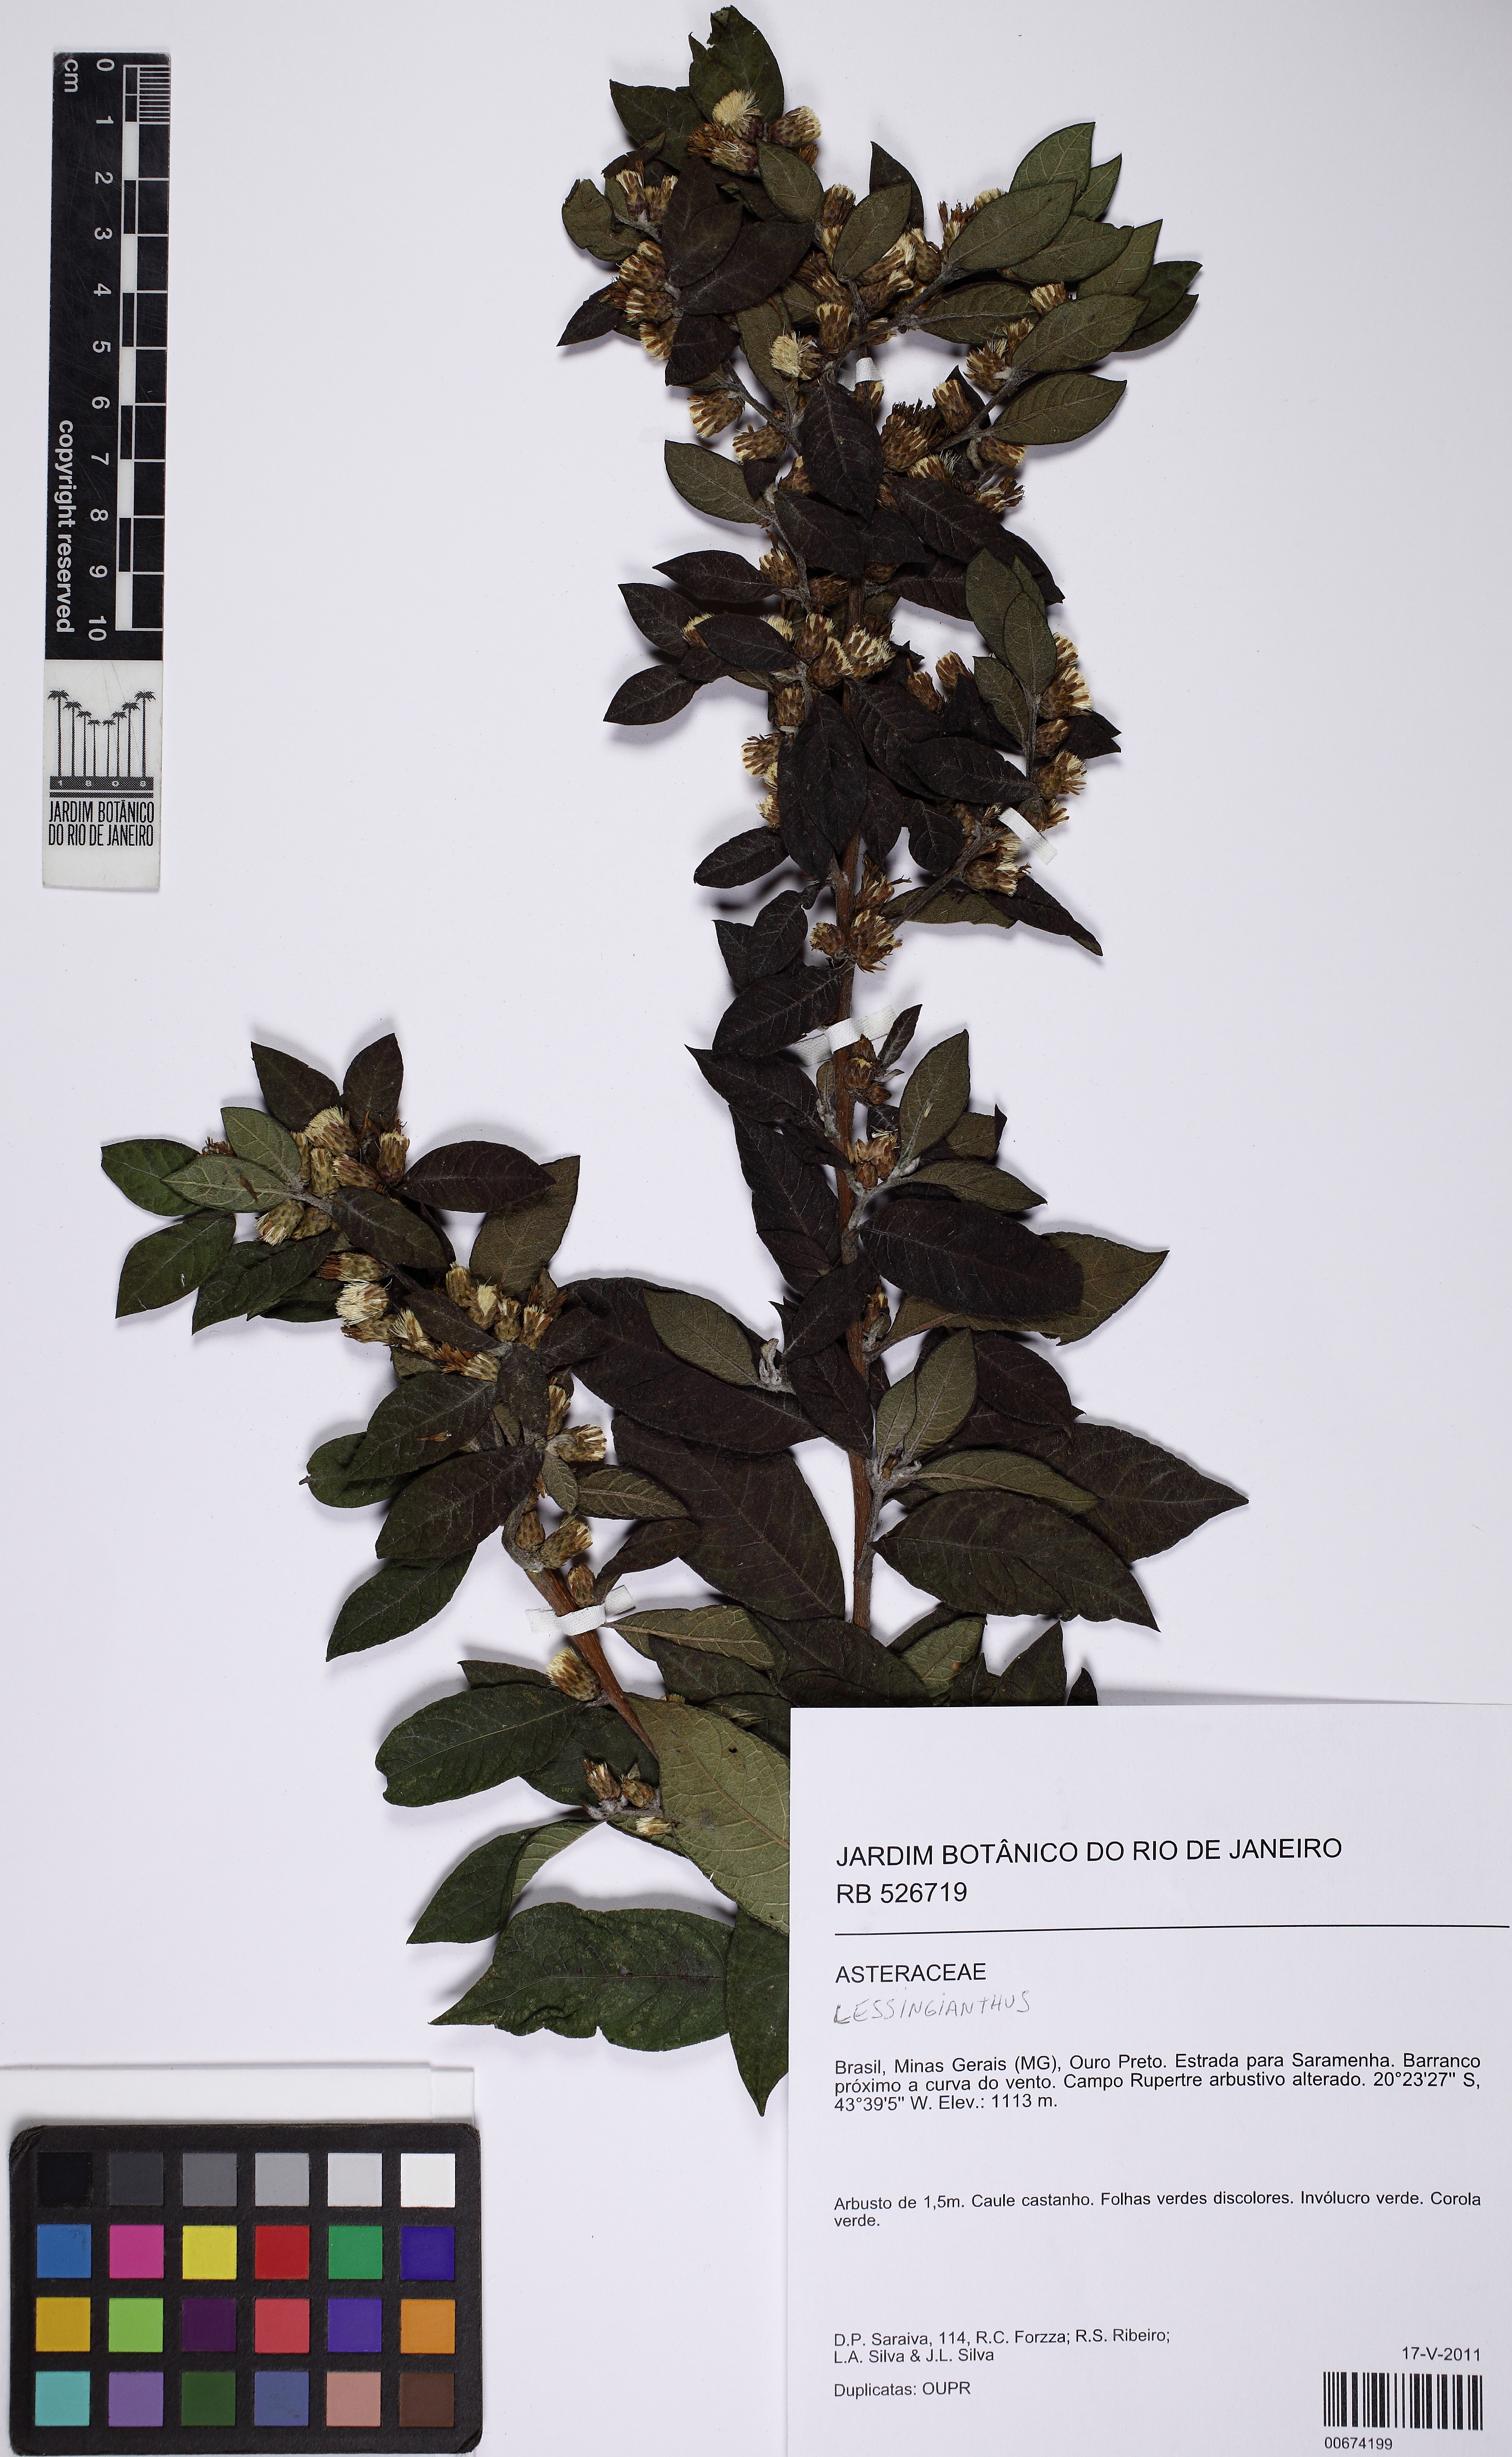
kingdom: Plantae
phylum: Tracheophyta
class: Magnoliopsida
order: Asterales
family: Asteraceae
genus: Lessingianthus
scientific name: Lessingianthus
